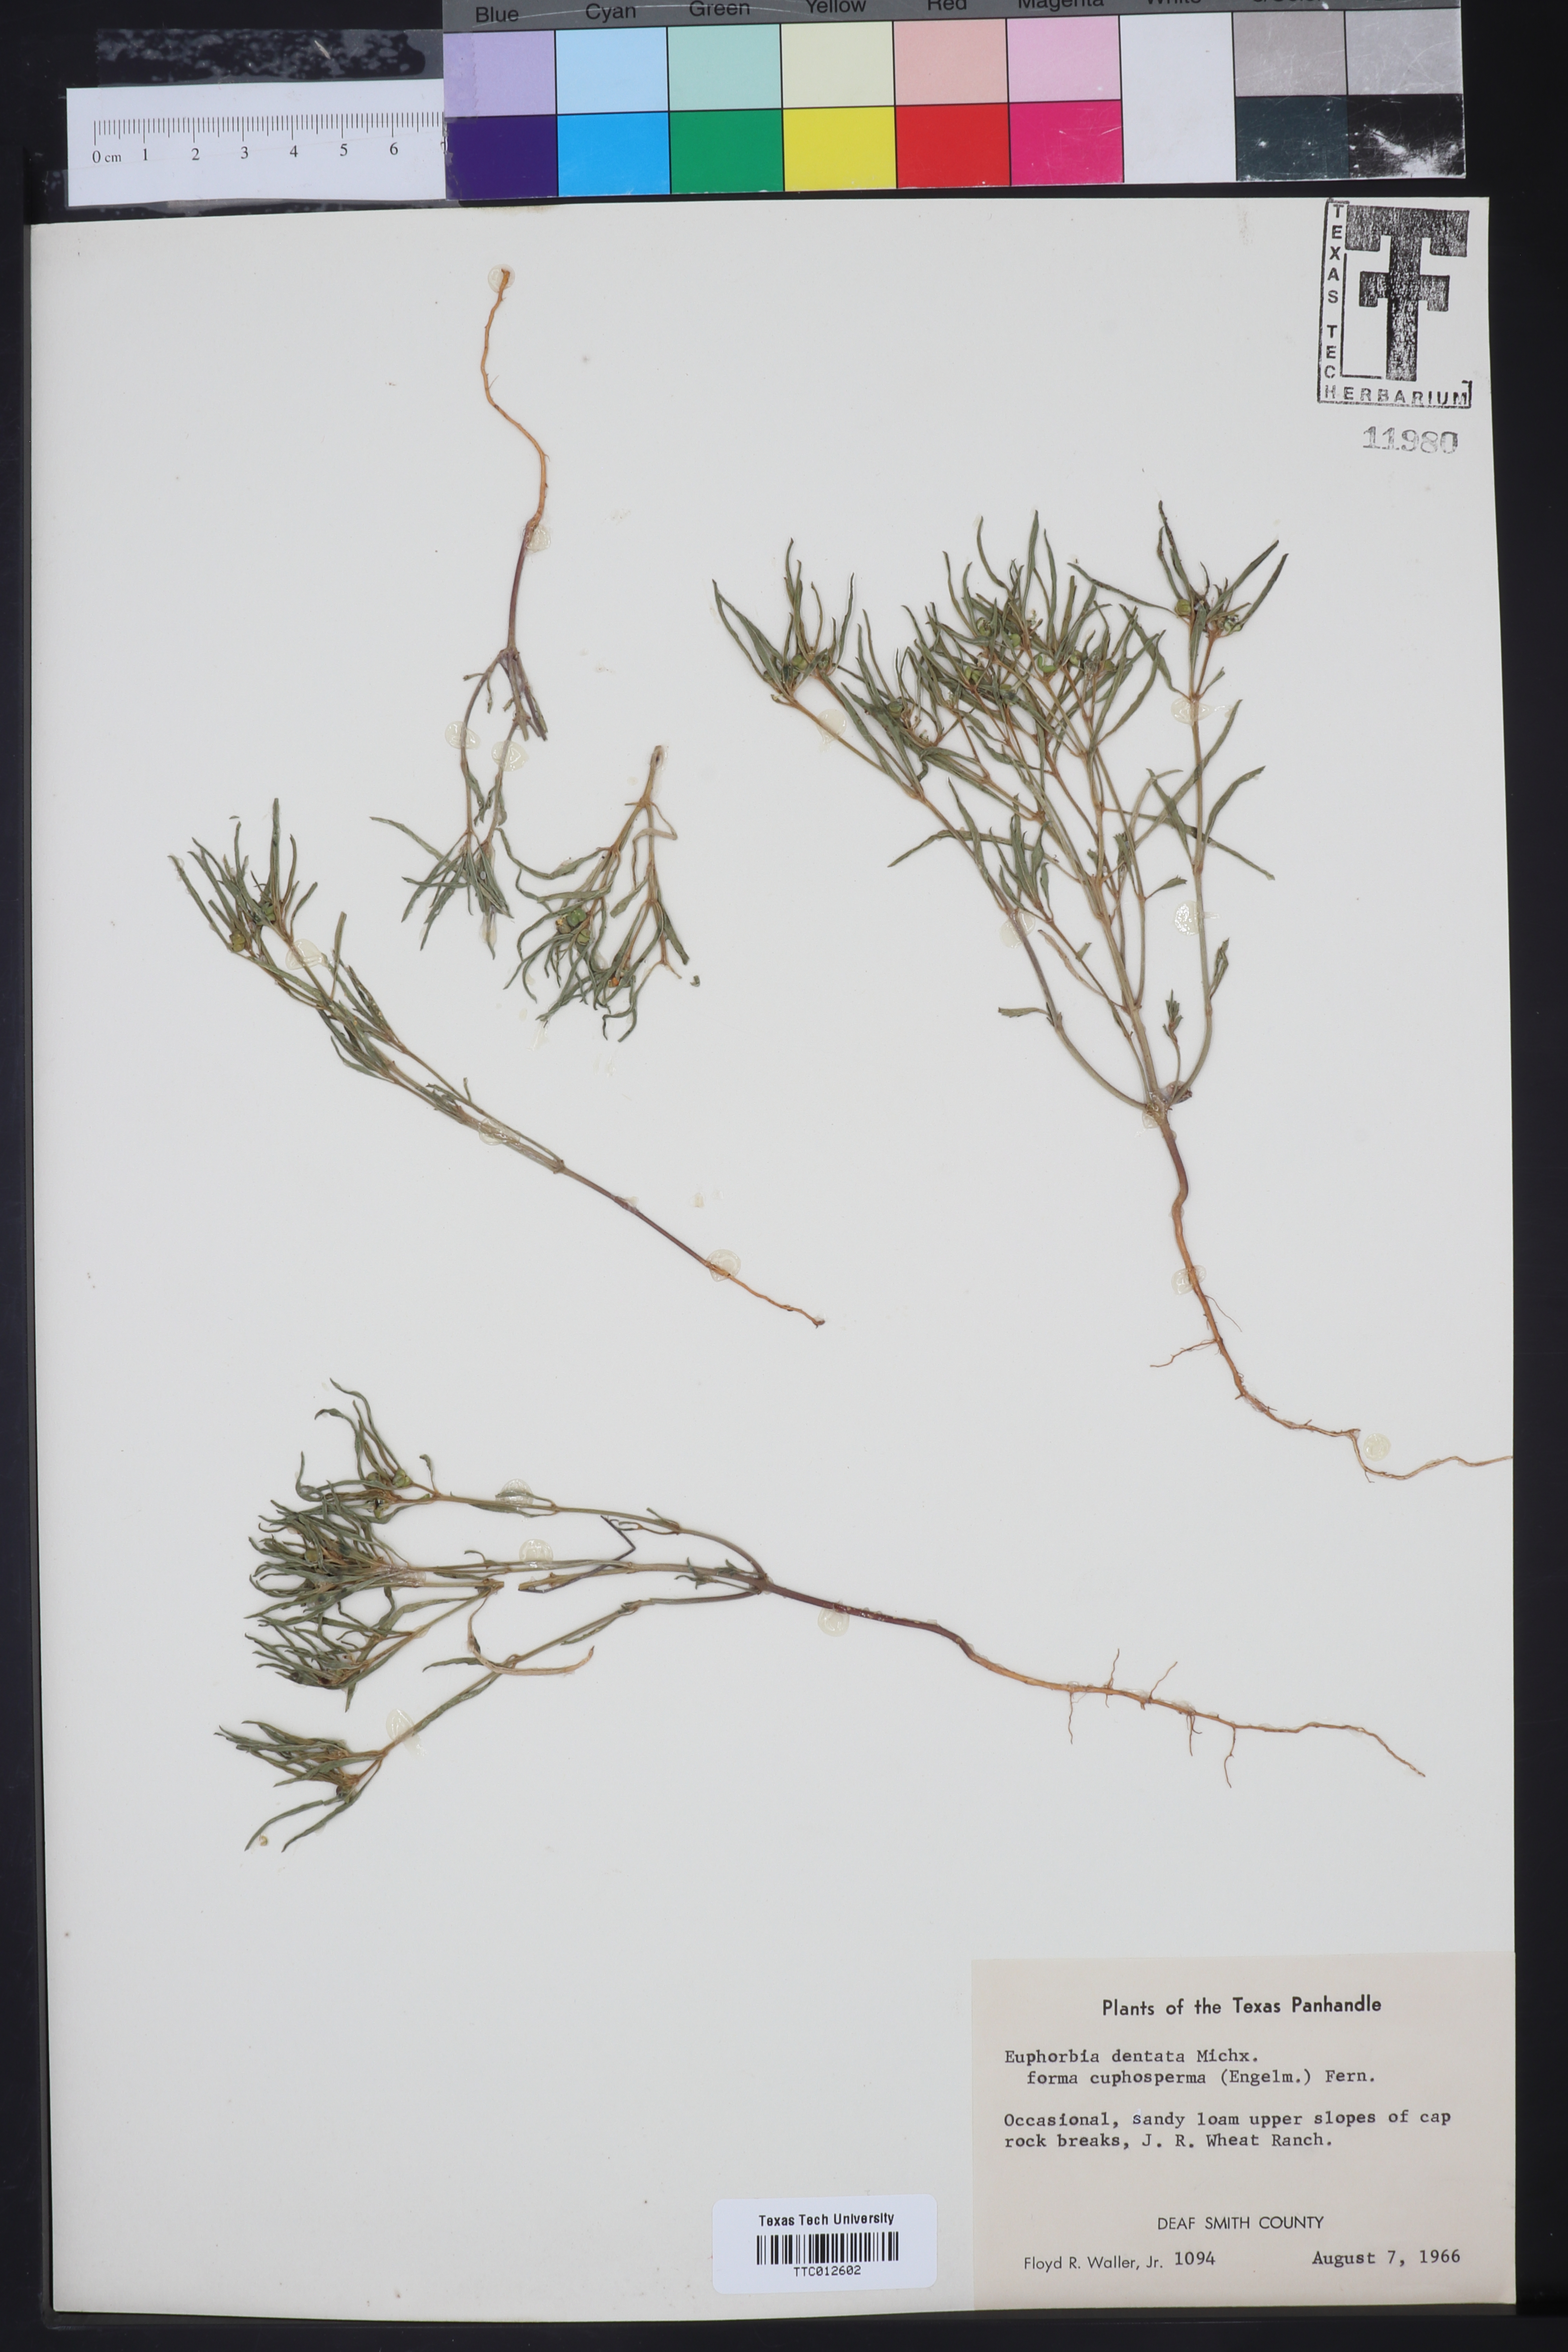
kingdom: Plantae
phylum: Tracheophyta
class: Magnoliopsida
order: Malpighiales
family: Euphorbiaceae
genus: Euphorbia
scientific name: Euphorbia dentata
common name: Dentate spurge
